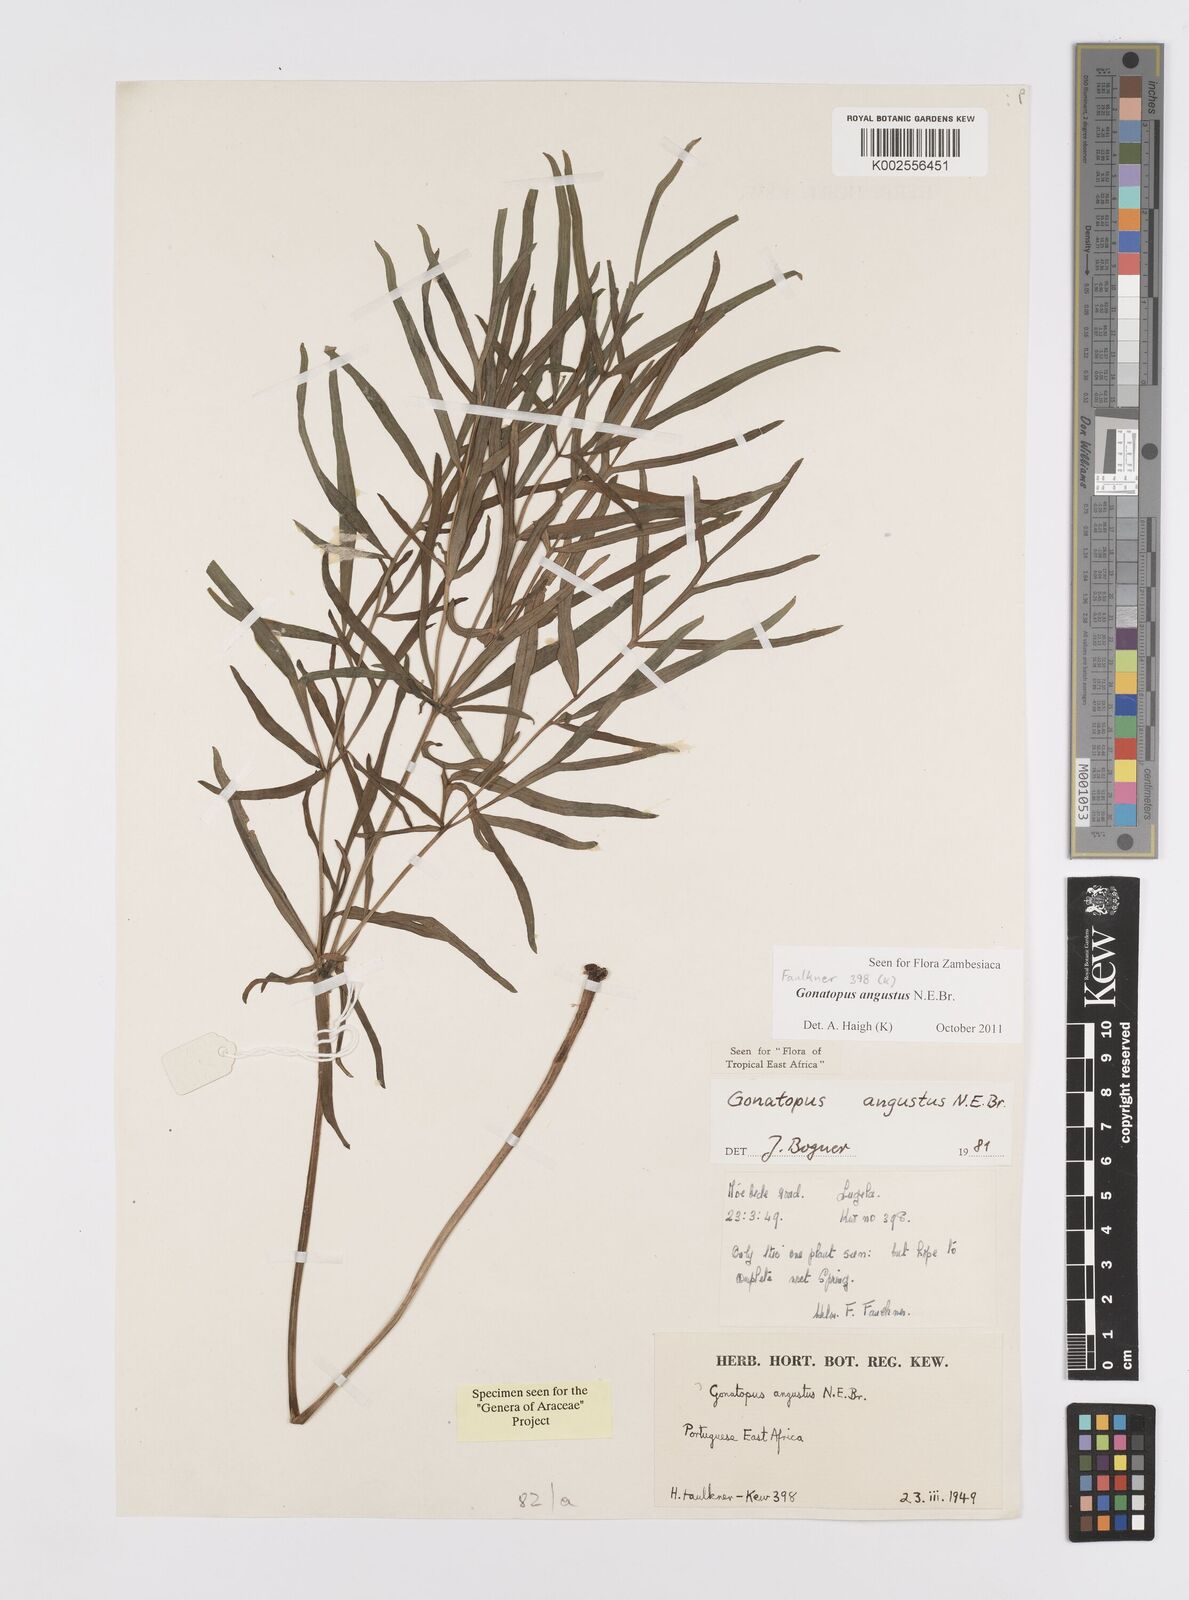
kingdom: Plantae
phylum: Tracheophyta
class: Liliopsida
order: Alismatales
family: Araceae
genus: Gonatopus
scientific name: Gonatopus angustus
